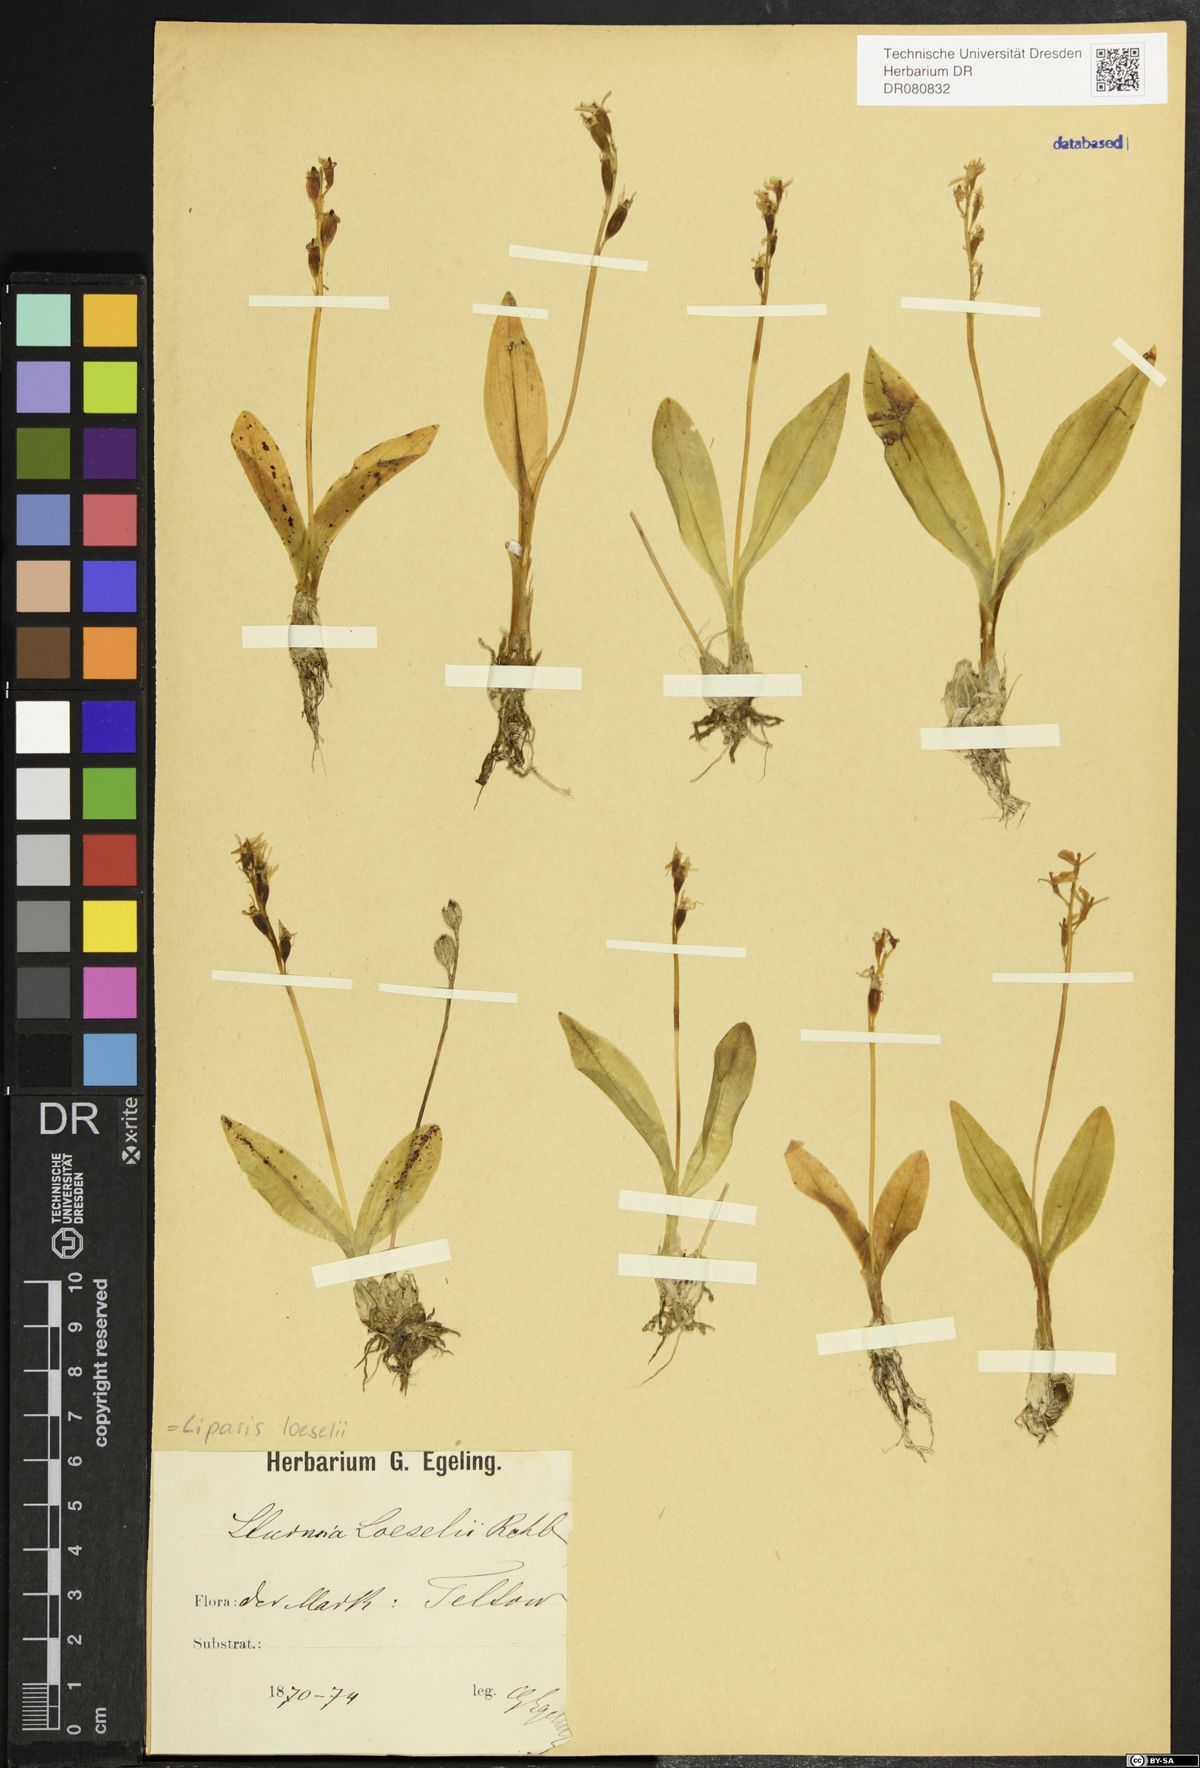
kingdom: Animalia
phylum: Arthropoda
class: Insecta
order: Coleoptera
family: Curculionidae
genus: Liparis
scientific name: Liparis loeselii
